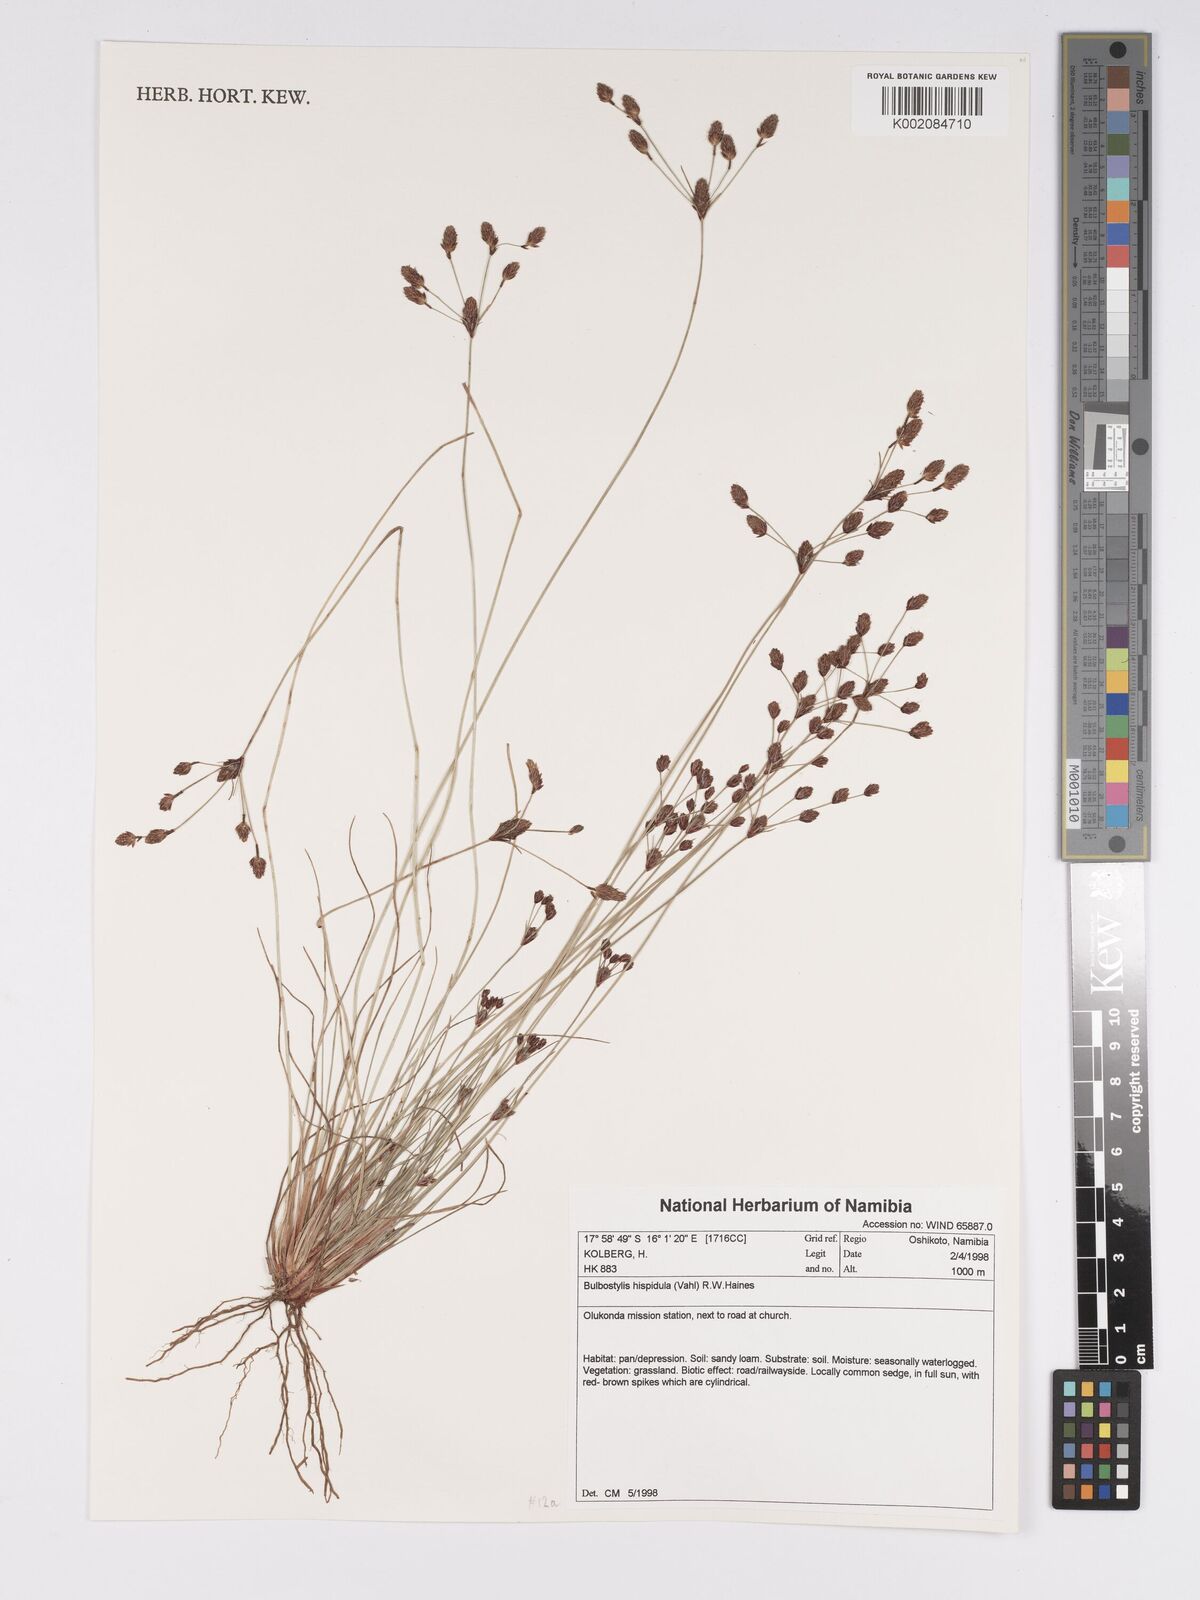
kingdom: Plantae
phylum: Tracheophyta
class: Liliopsida
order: Poales
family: Cyperaceae
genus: Bulbostylis
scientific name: Bulbostylis hispidula
